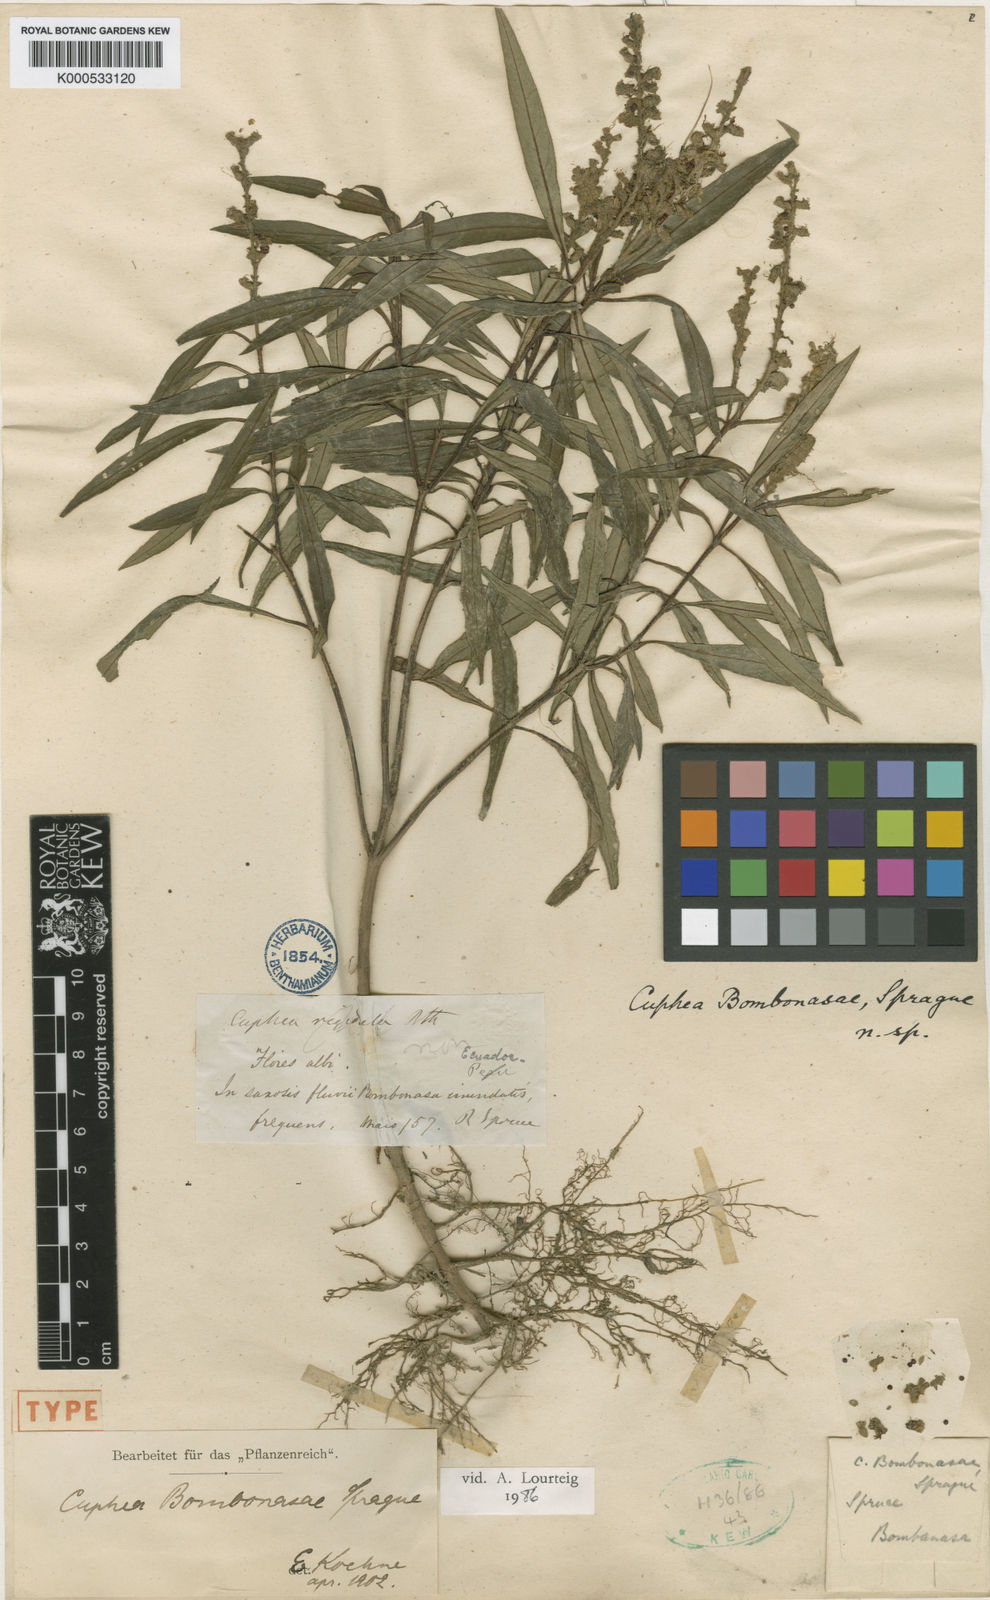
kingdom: Plantae
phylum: Tracheophyta
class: Magnoliopsida
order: Myrtales
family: Lythraceae
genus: Cuphea
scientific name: Cuphea bombonasae
